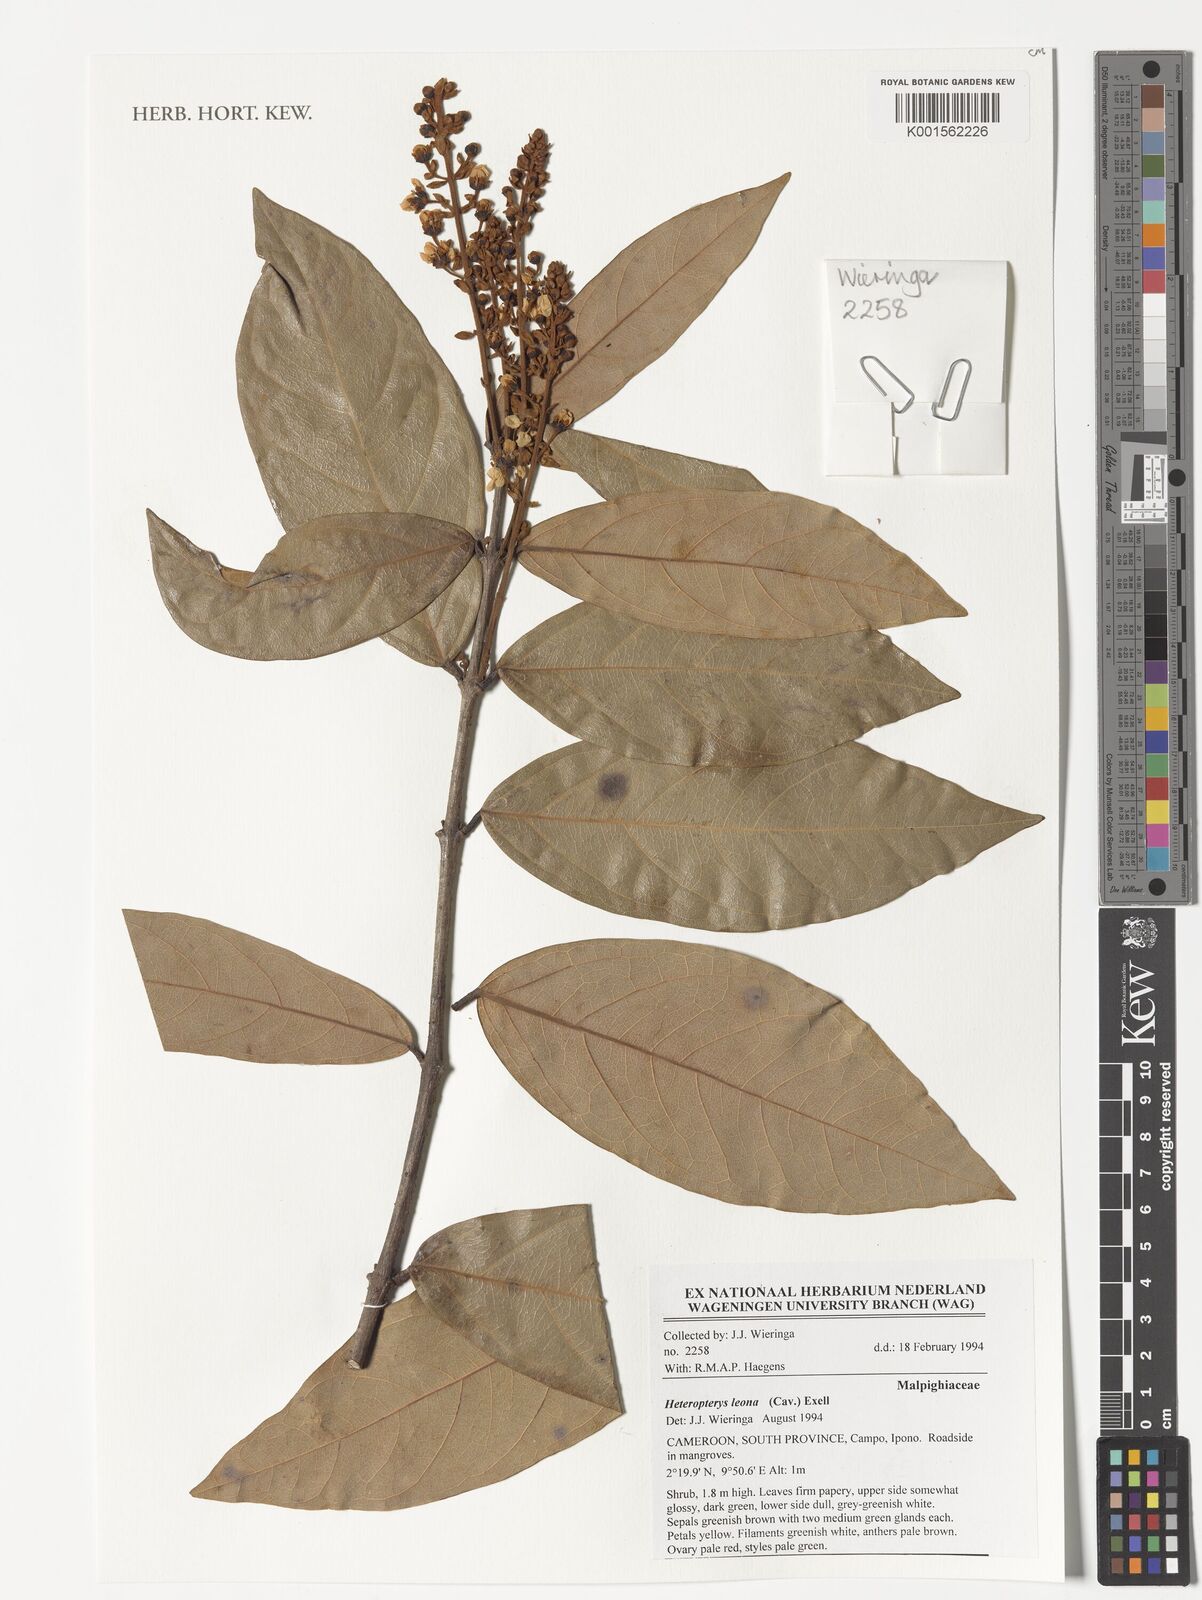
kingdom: Plantae
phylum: Tracheophyta
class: Magnoliopsida
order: Malpighiales
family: Malpighiaceae
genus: Heteropterys
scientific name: Heteropterys leona
